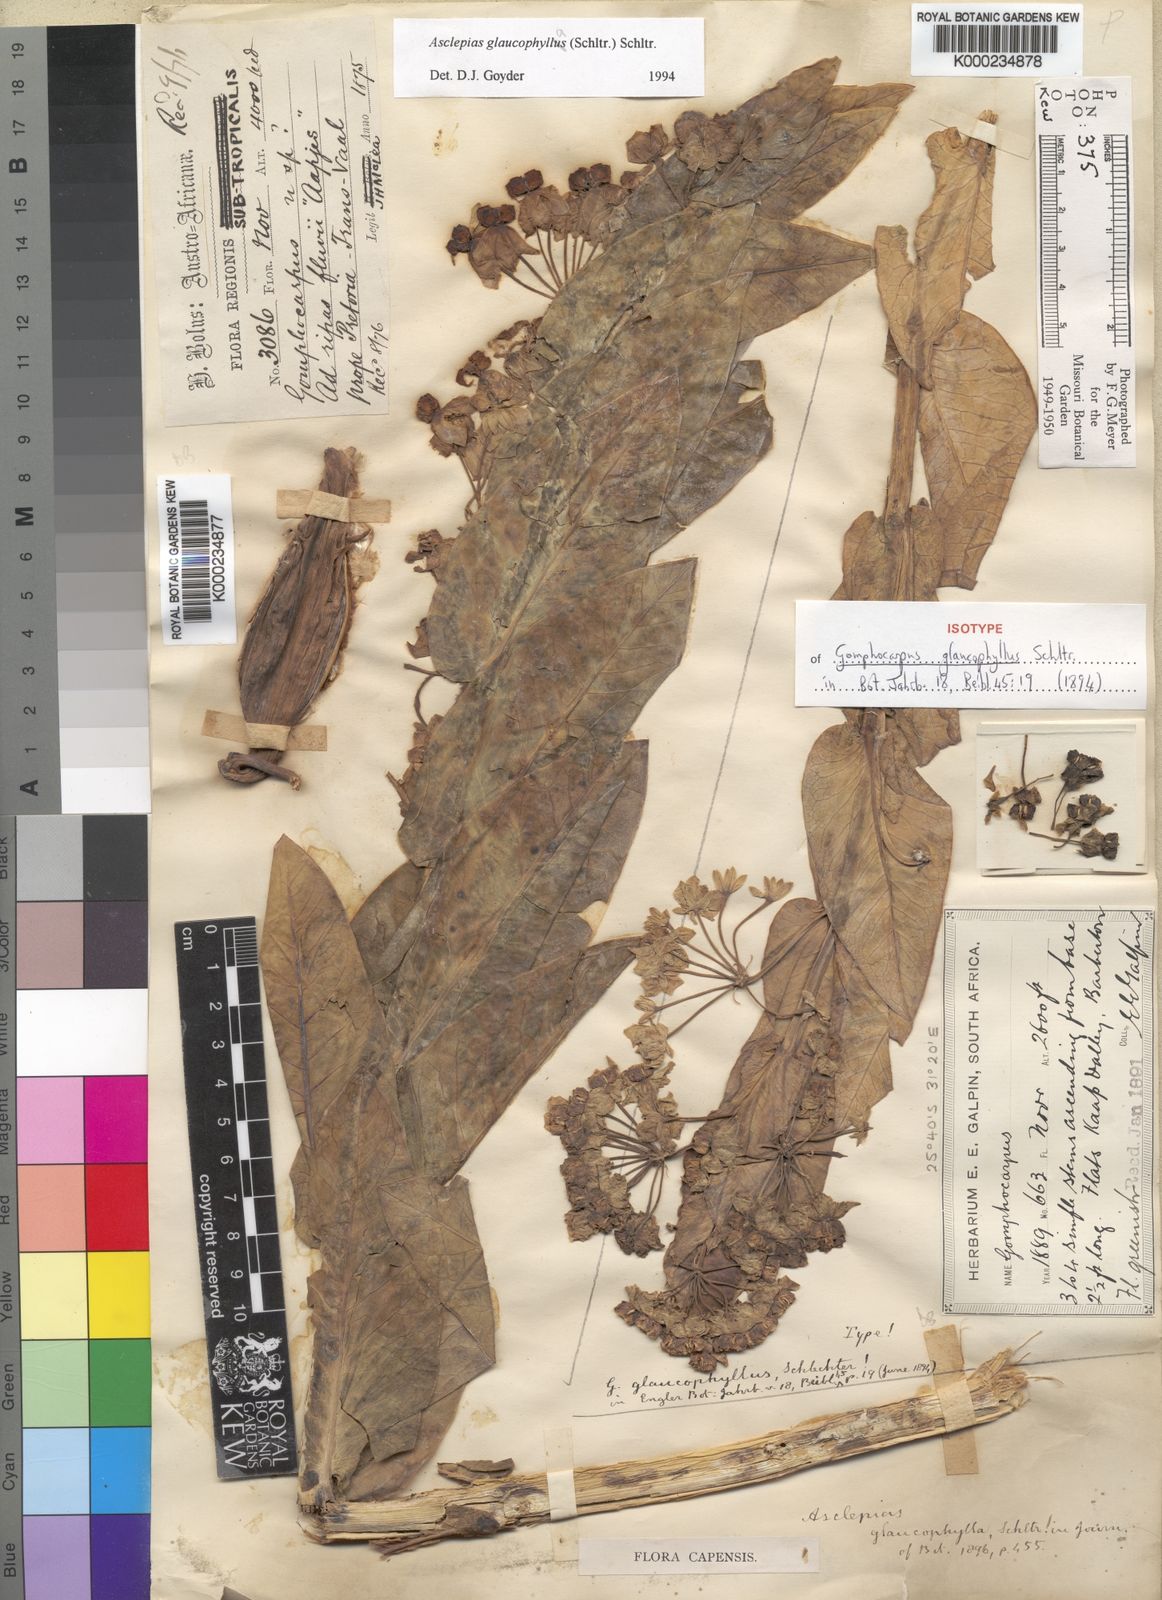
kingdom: Plantae
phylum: Tracheophyta
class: Magnoliopsida
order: Gentianales
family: Apocynaceae
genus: Gomphocarpus
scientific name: Gomphocarpus glaucophyllus
